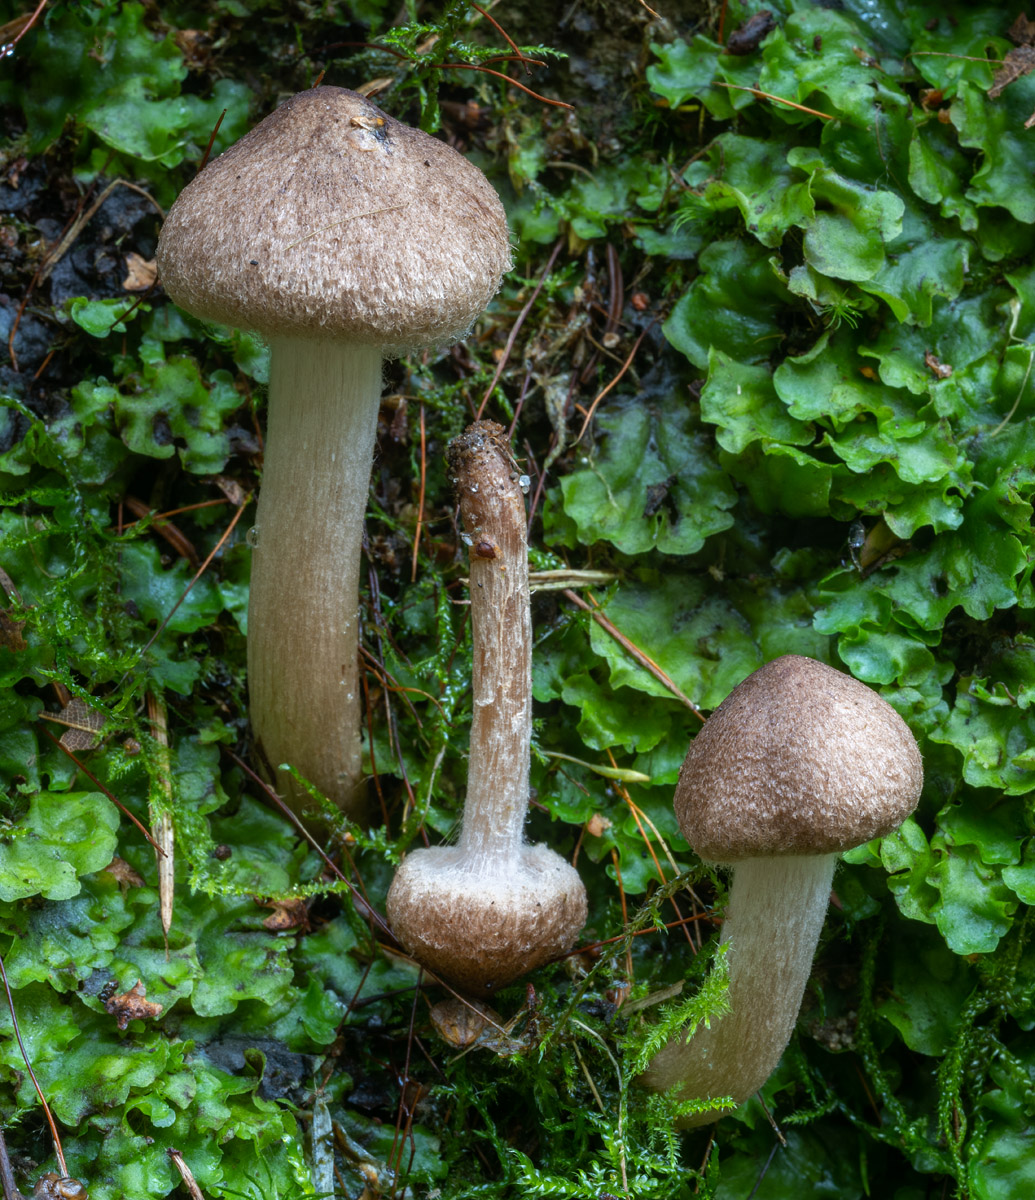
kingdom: Fungi
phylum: Basidiomycota
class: Agaricomycetes
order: Agaricales
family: Inocybaceae
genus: Inocybe
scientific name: Inocybe moravica
